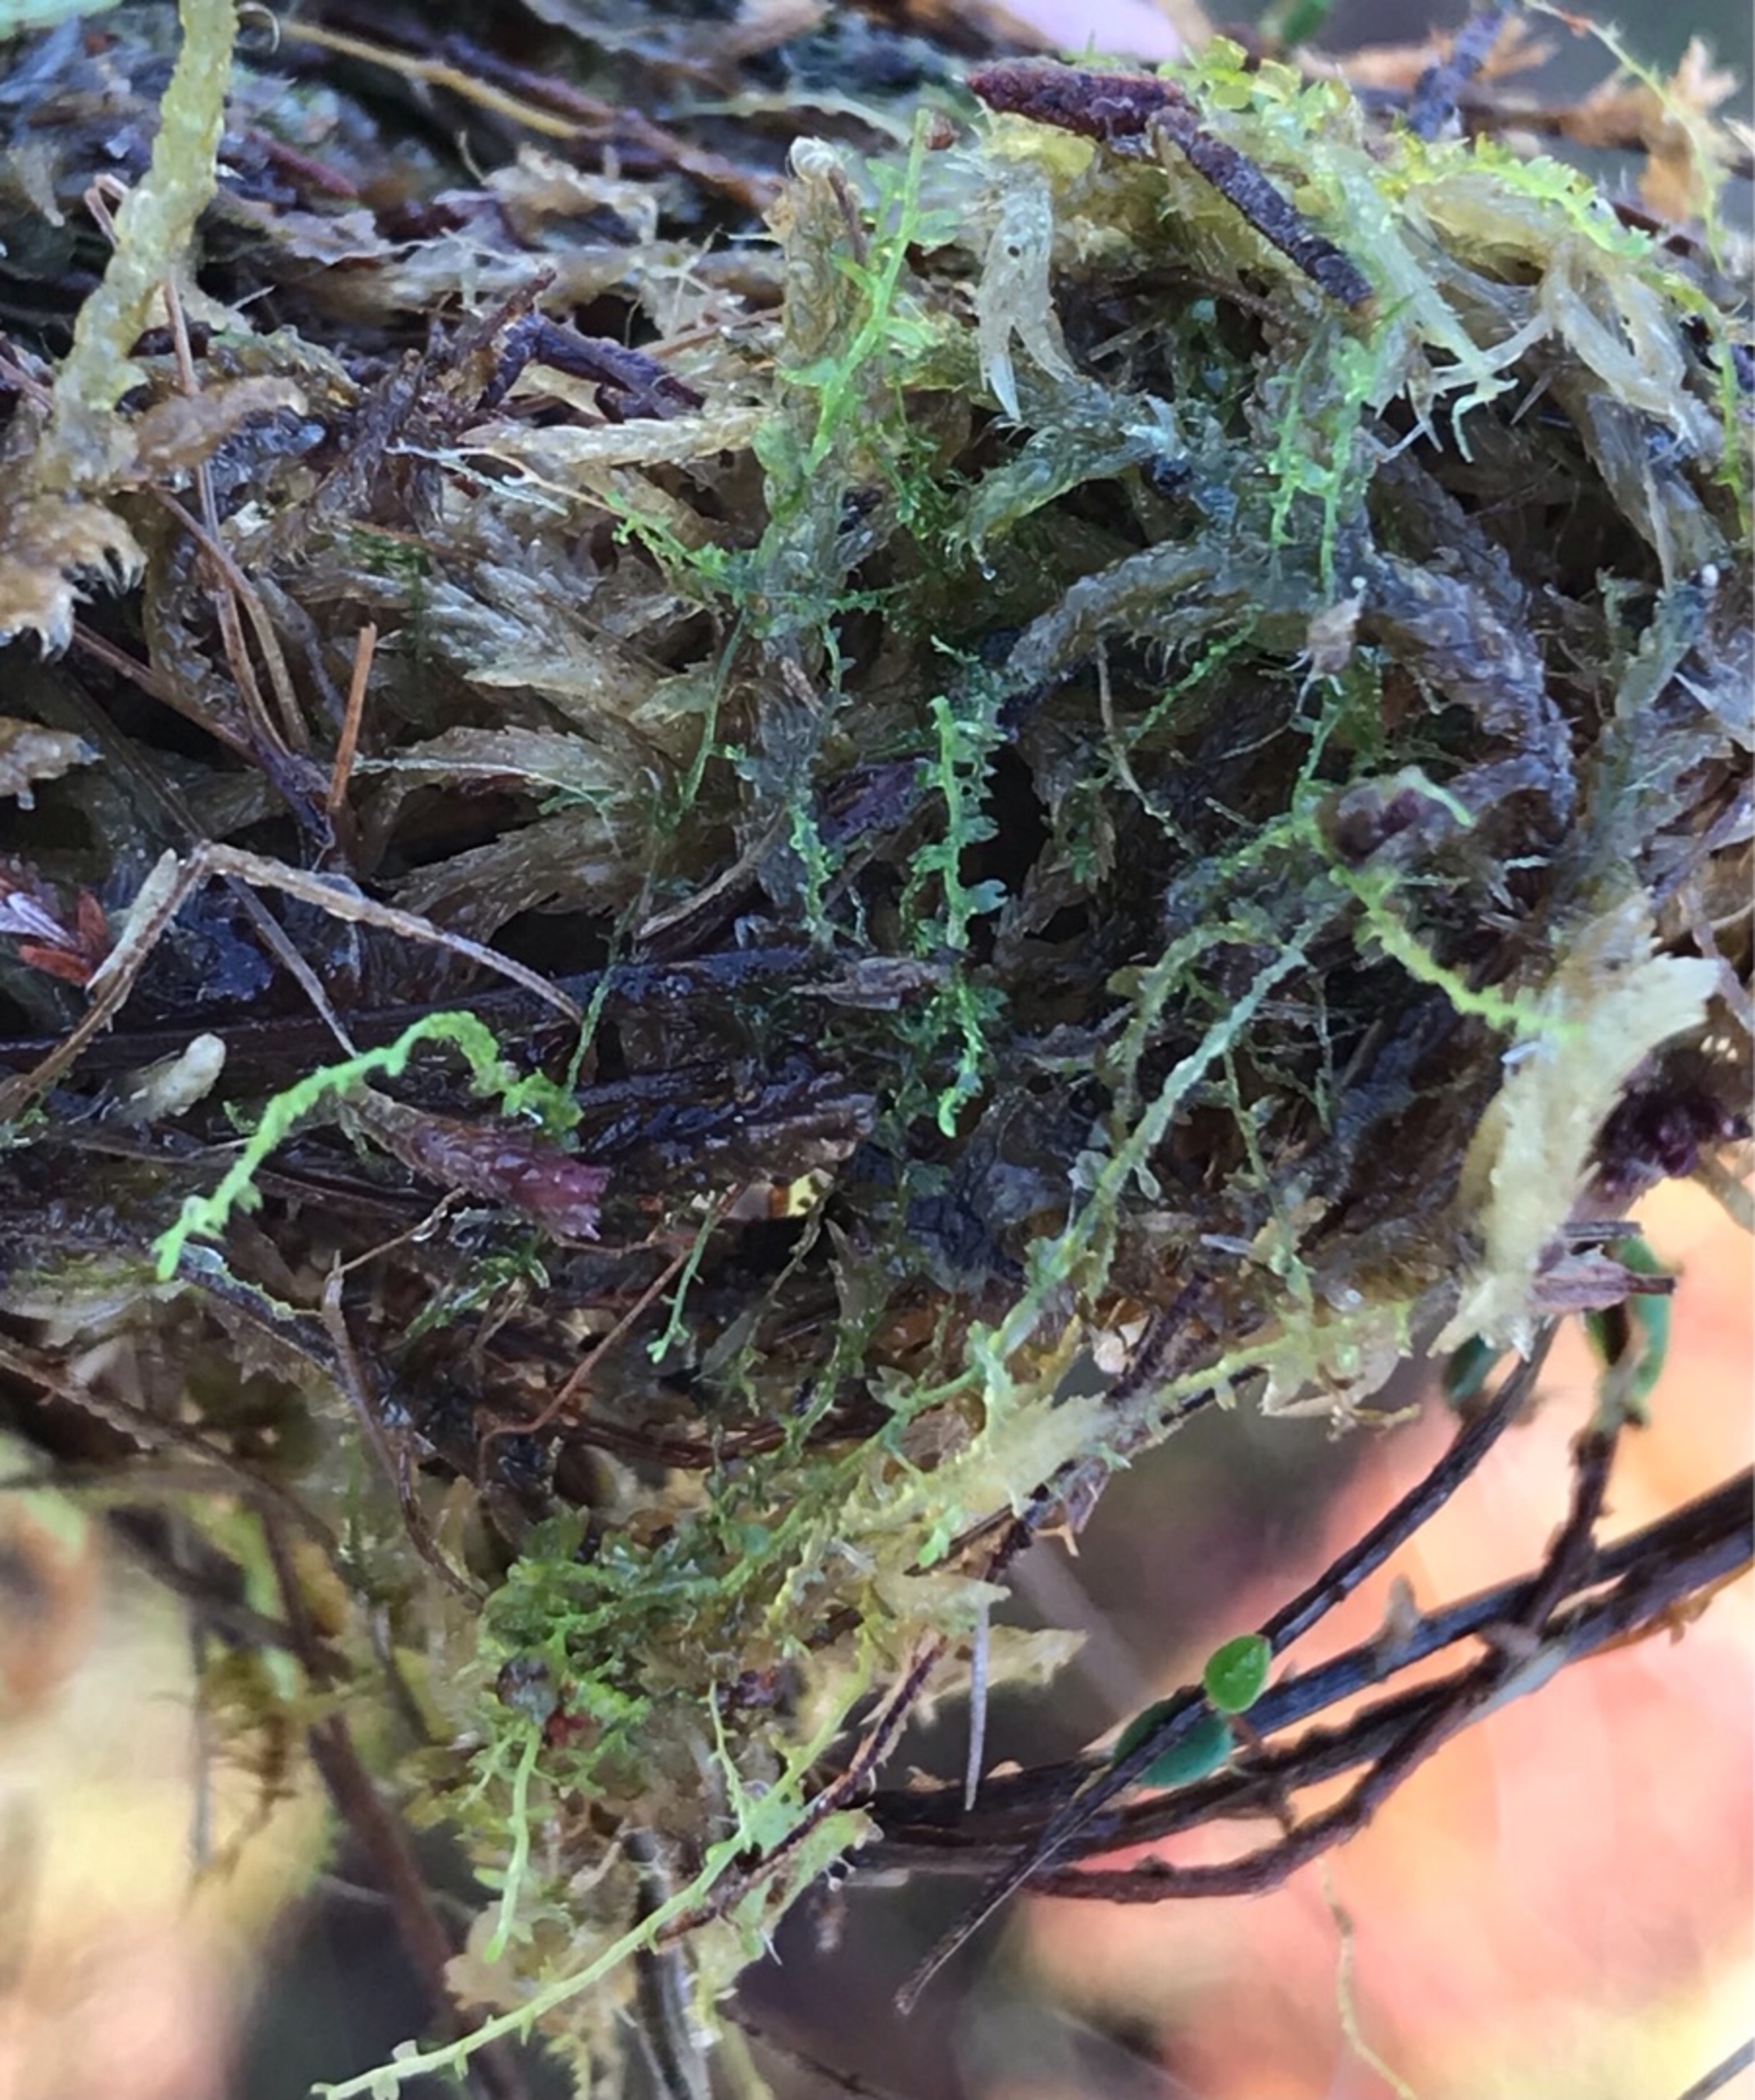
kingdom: Plantae
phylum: Marchantiophyta
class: Jungermanniopsida
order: Jungermanniales
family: Cephaloziaceae
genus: Odontoschisma
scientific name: Odontoschisma fluitans
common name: Tørve-vævmos
